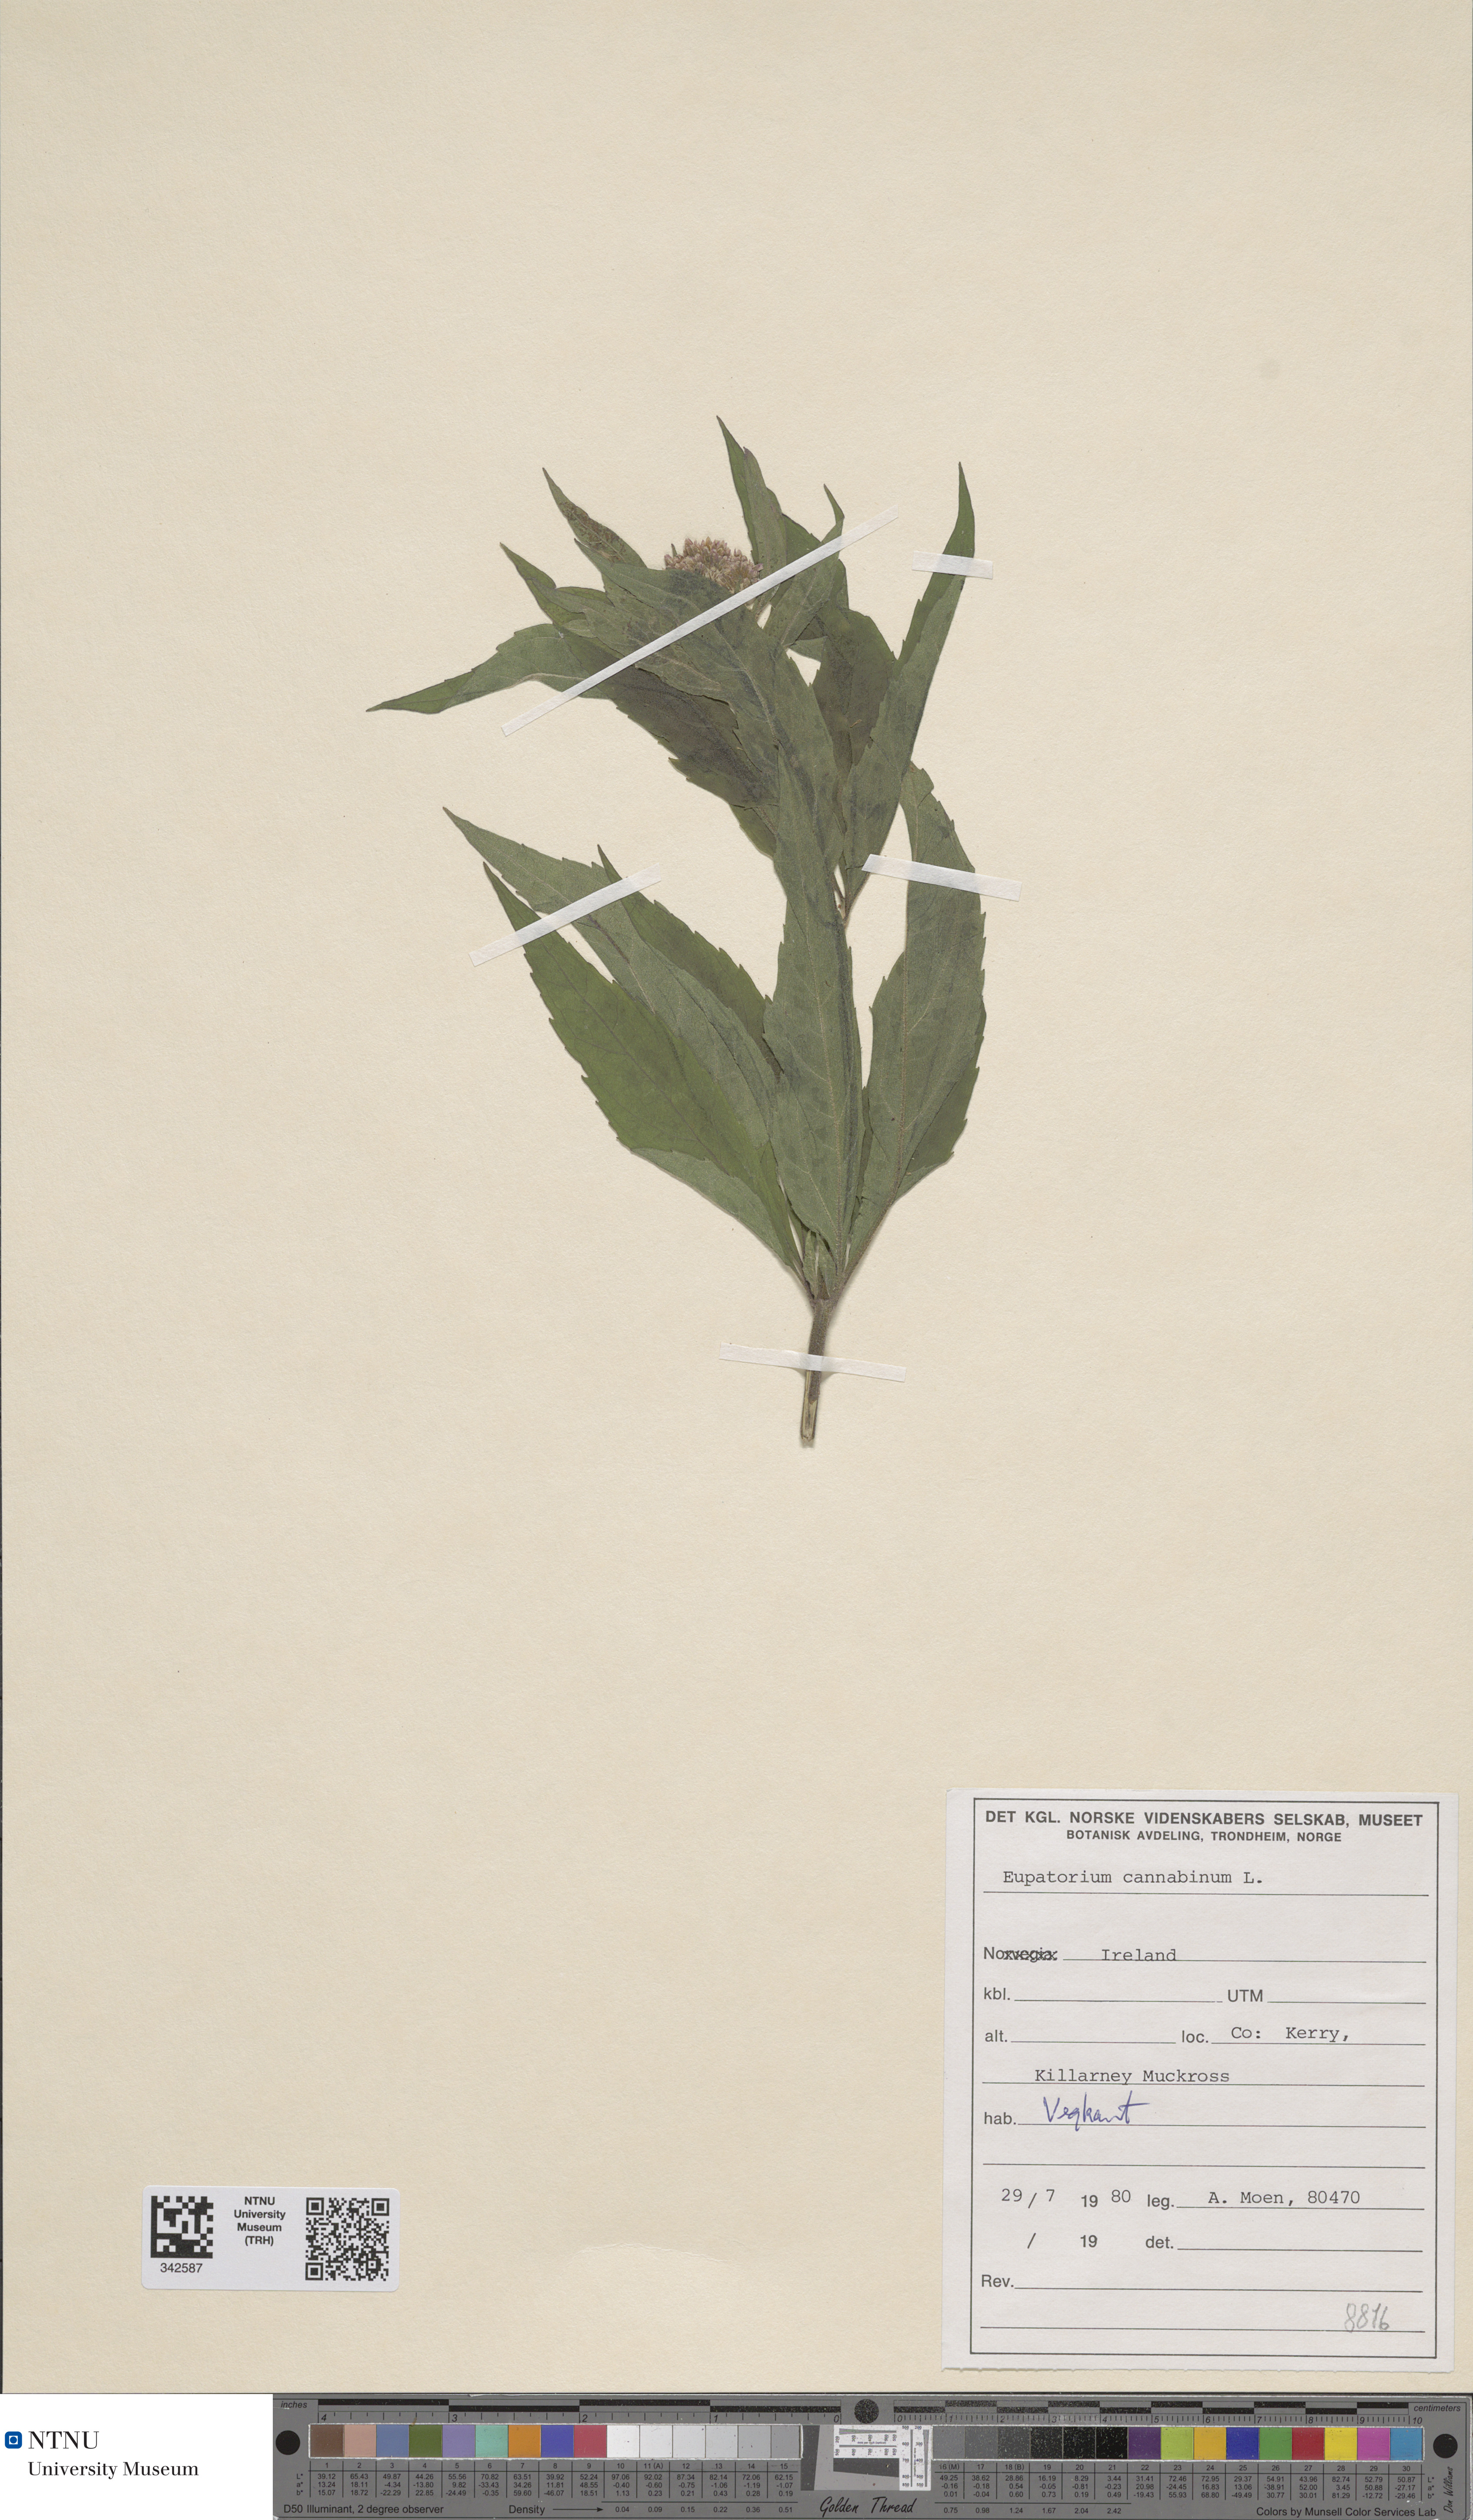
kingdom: Plantae
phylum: Tracheophyta
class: Magnoliopsida
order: Asterales
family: Asteraceae
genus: Eupatorium
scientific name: Eupatorium cannabinum
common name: Hemp-agrimony
